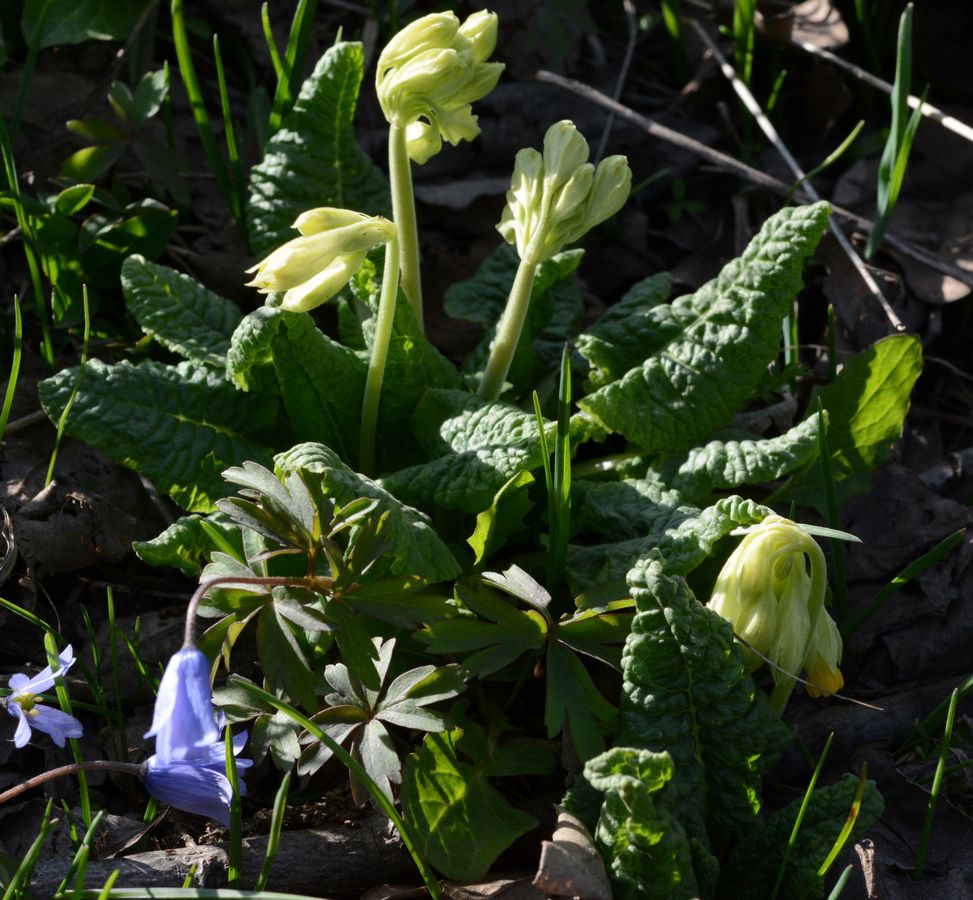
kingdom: Plantae
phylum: Tracheophyta
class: Magnoliopsida
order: Ericales
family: Primulaceae
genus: Primula
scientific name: Primula veris
